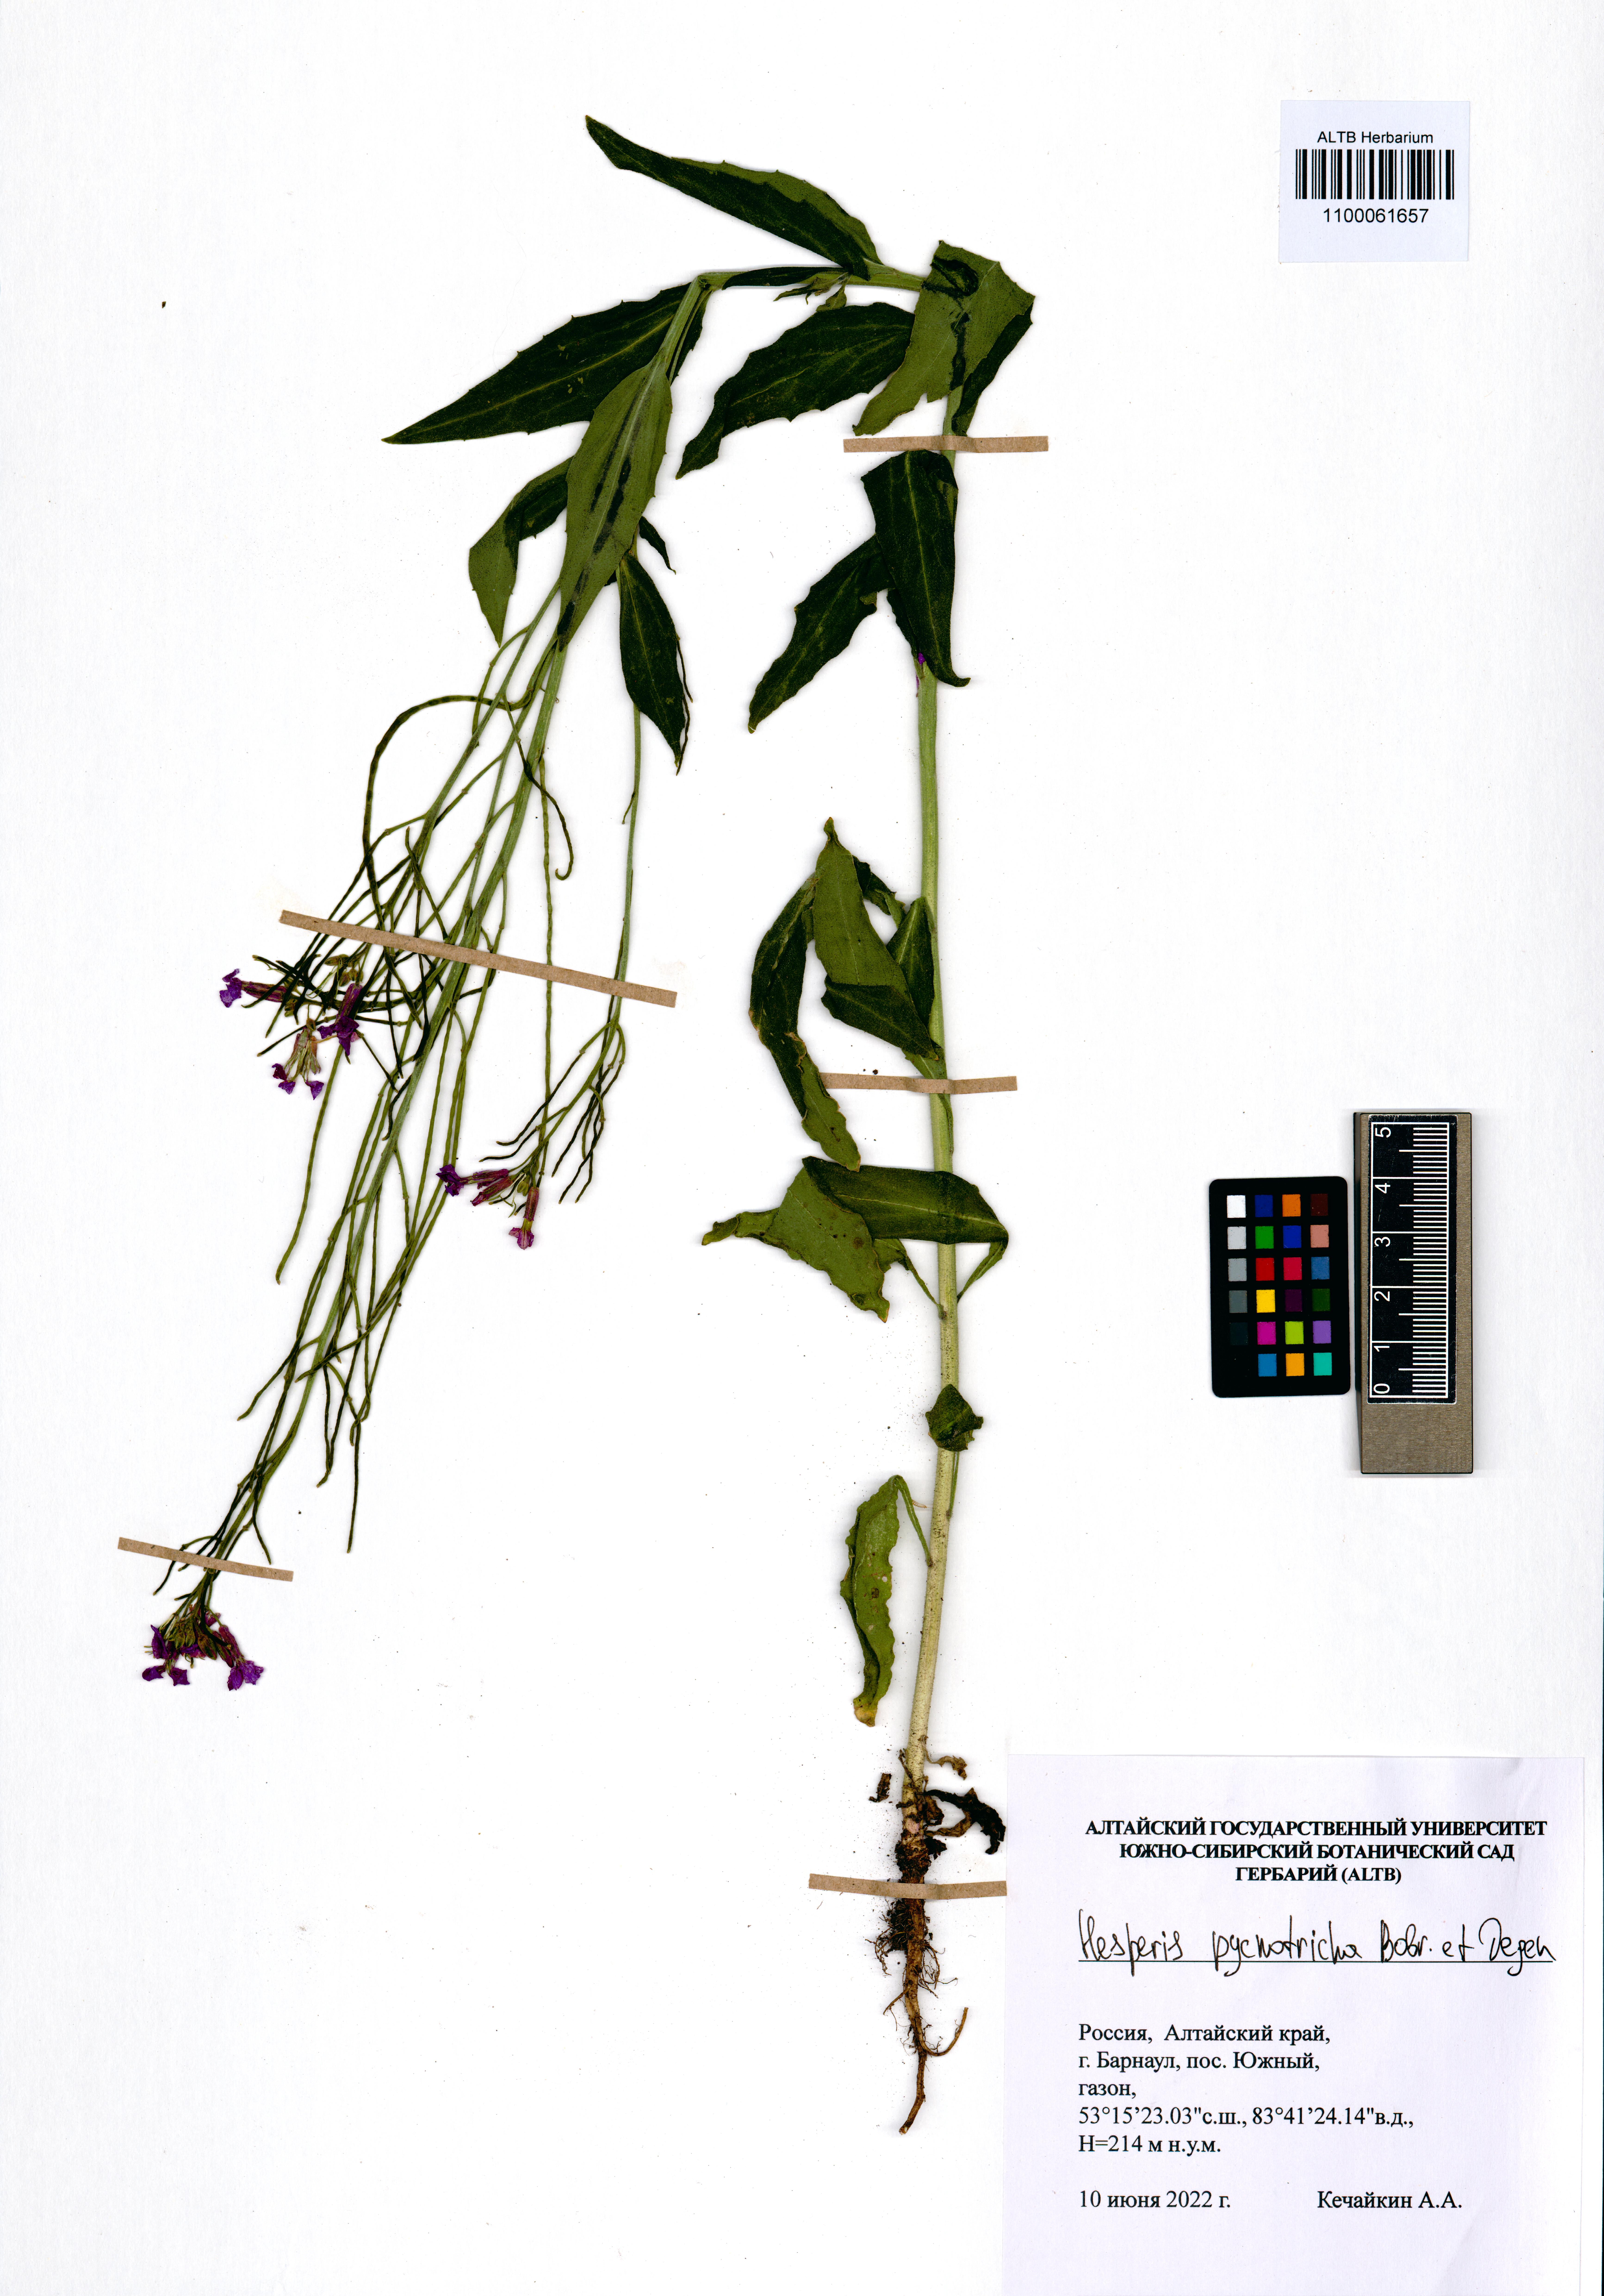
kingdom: Plantae
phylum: Tracheophyta
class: Magnoliopsida
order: Brassicales
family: Brassicaceae
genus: Hesperis
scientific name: Hesperis pycnotricha
